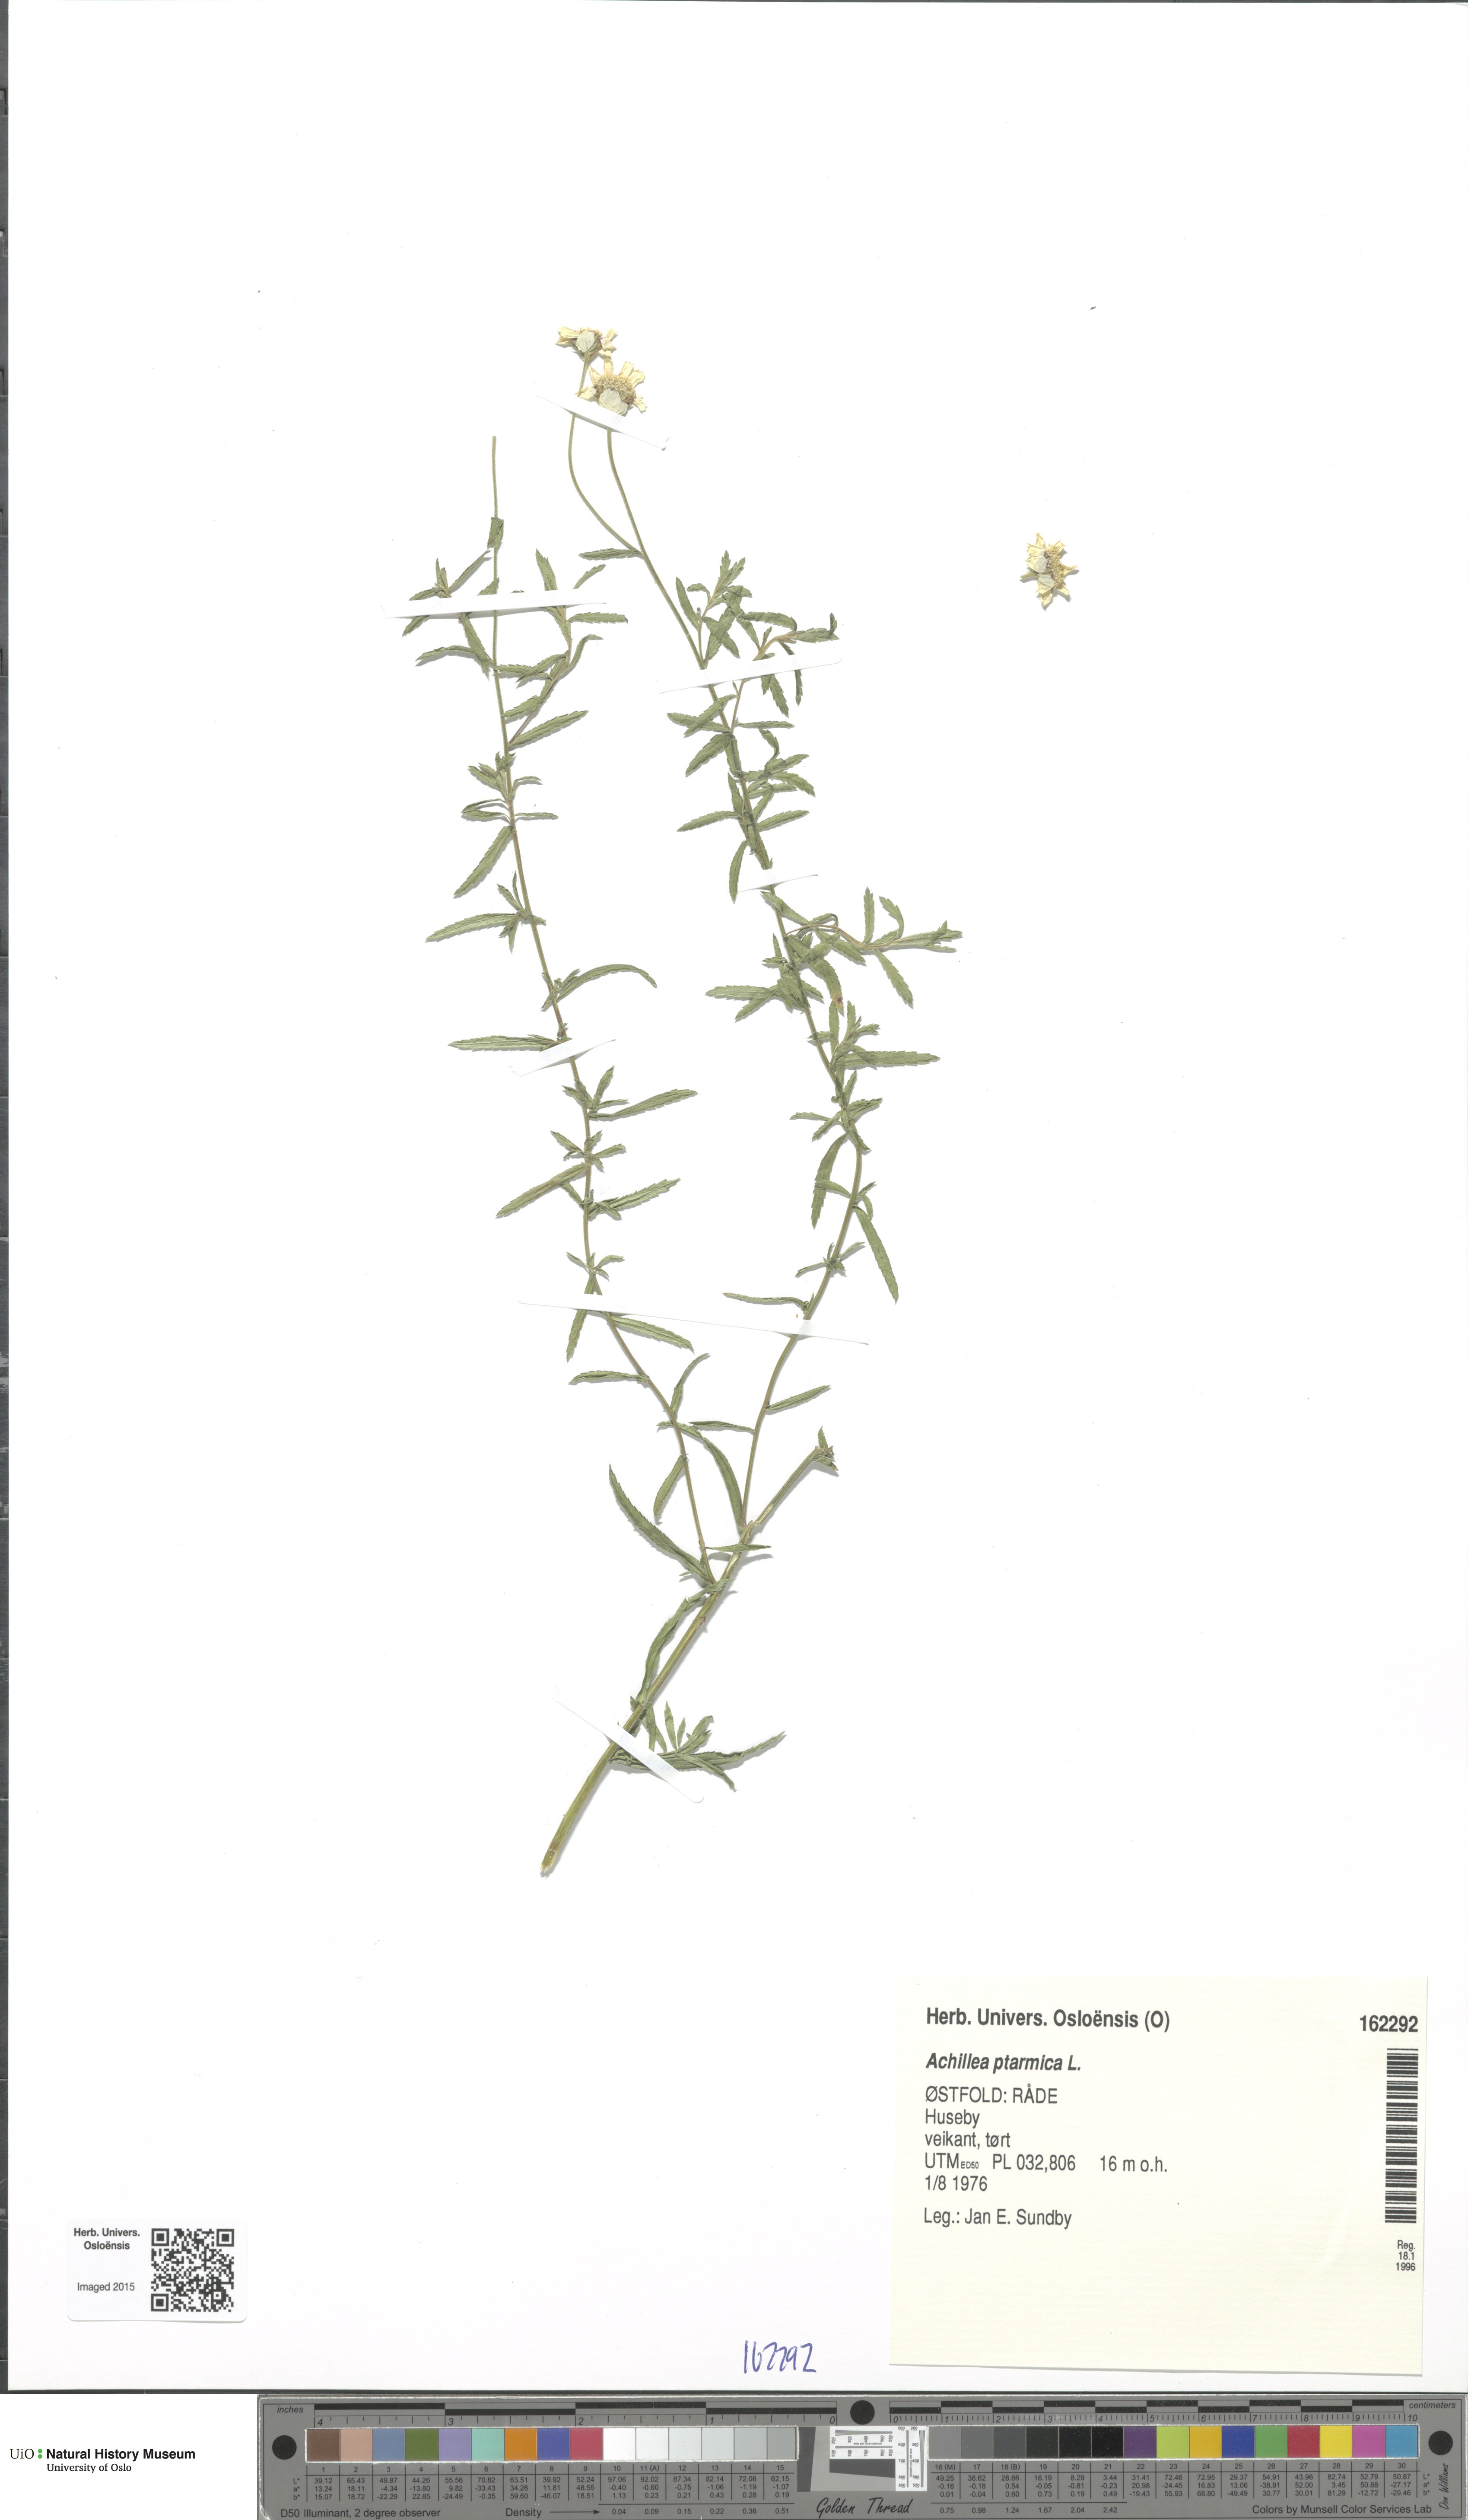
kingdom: Plantae
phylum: Tracheophyta
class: Magnoliopsida
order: Asterales
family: Asteraceae
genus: Achillea
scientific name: Achillea ptarmica
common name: Sneezeweed
